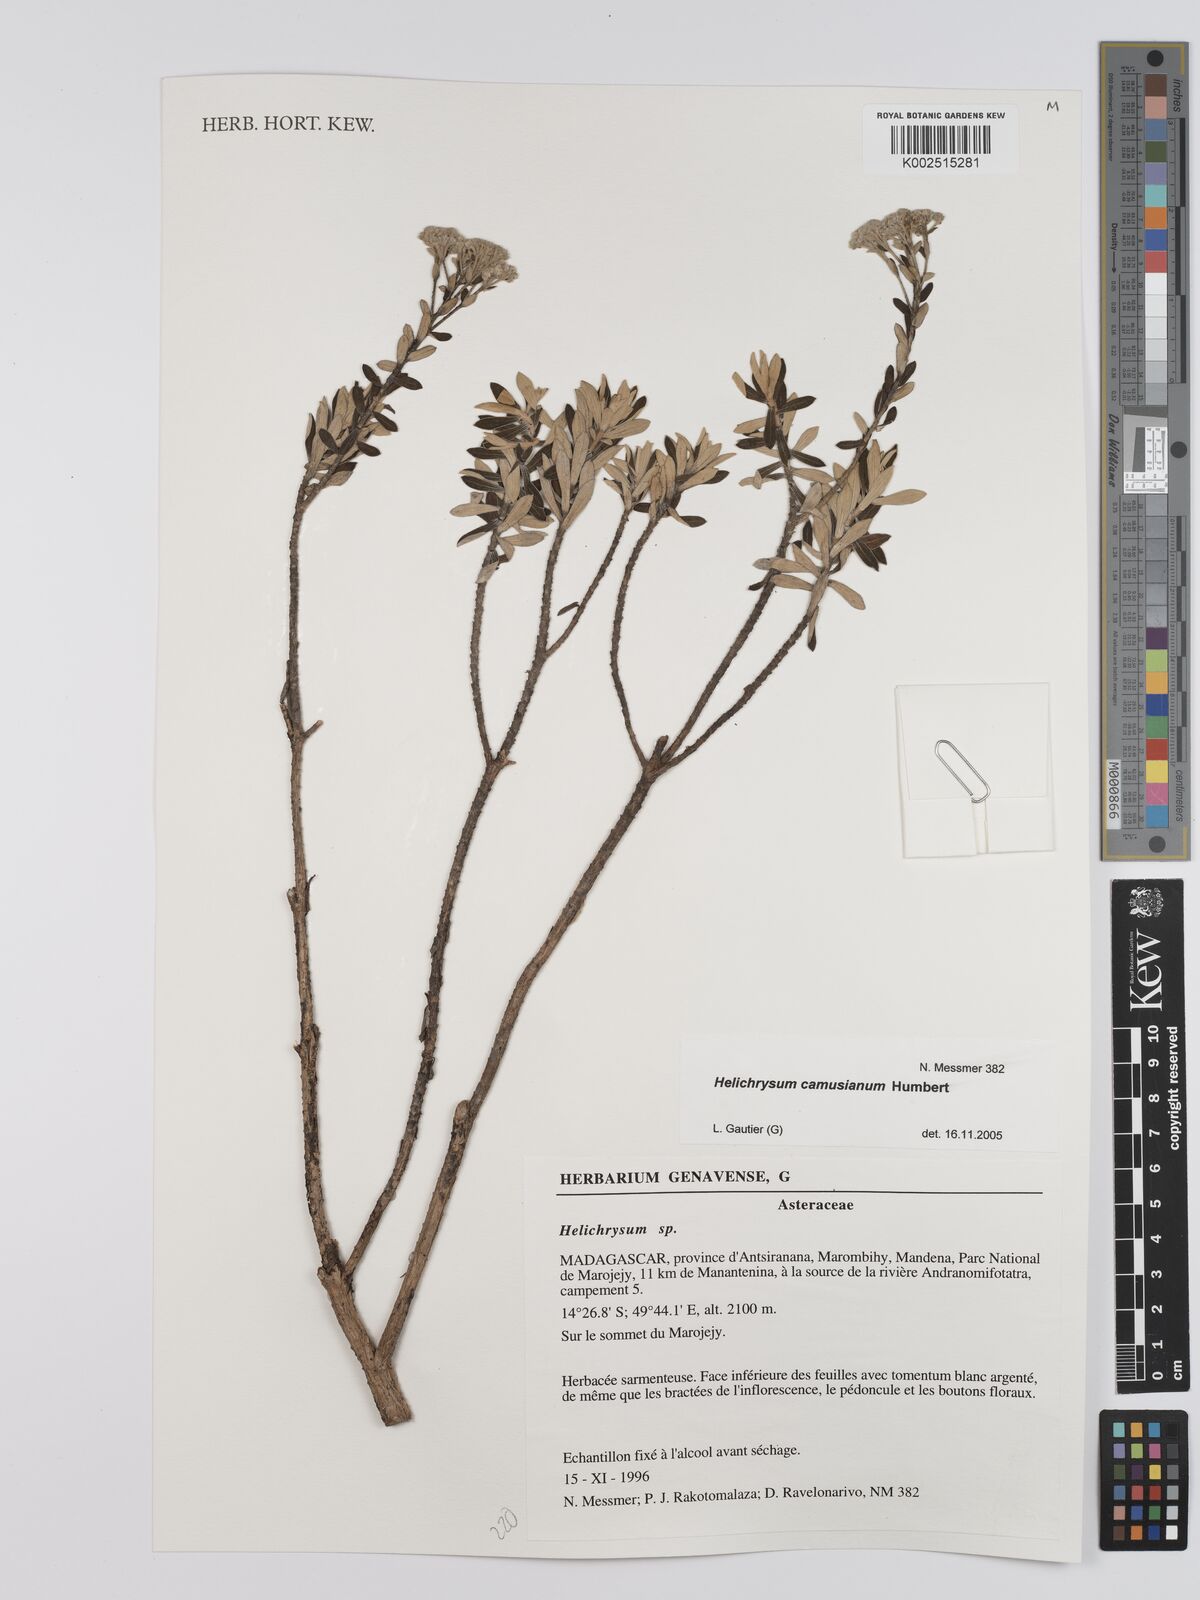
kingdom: Plantae
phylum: Tracheophyta
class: Magnoliopsida
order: Asterales
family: Asteraceae
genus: Helichrysum
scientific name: Helichrysum camusianum
